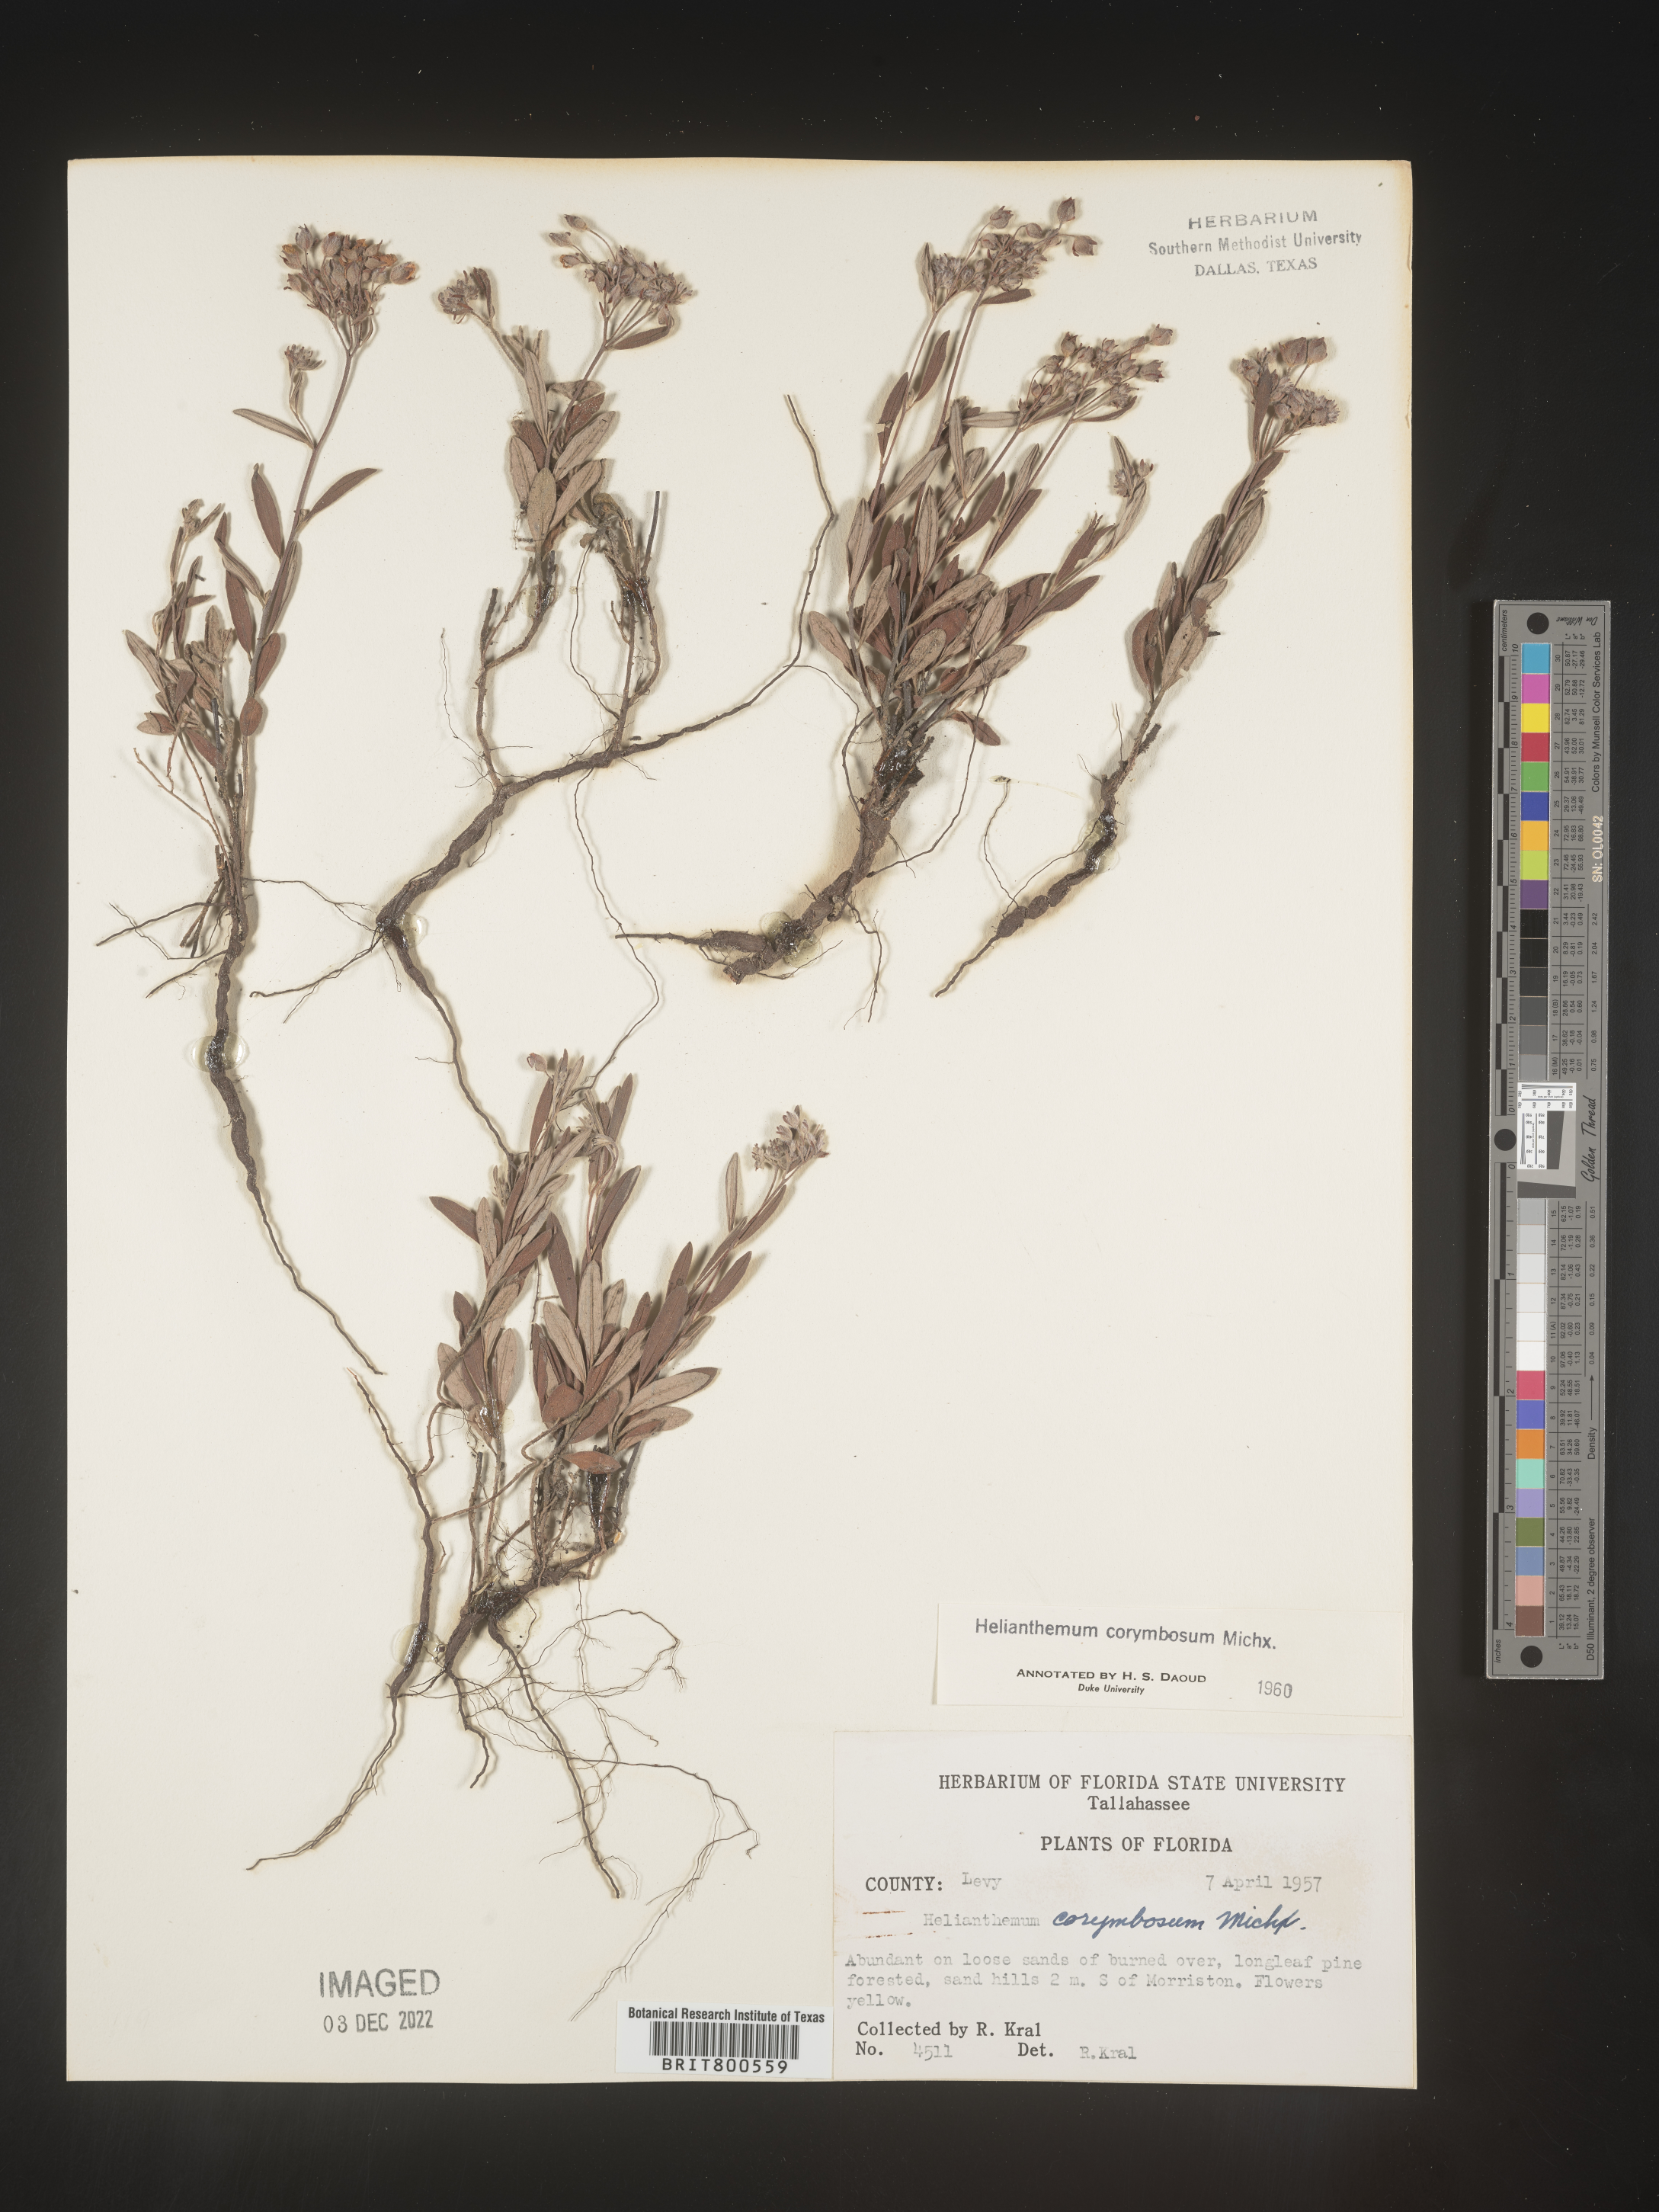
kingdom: Plantae
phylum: Tracheophyta
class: Magnoliopsida
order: Malvales
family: Cistaceae
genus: Crocanthemum
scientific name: Crocanthemum corymbosum
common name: Pinebarren sun-rose
